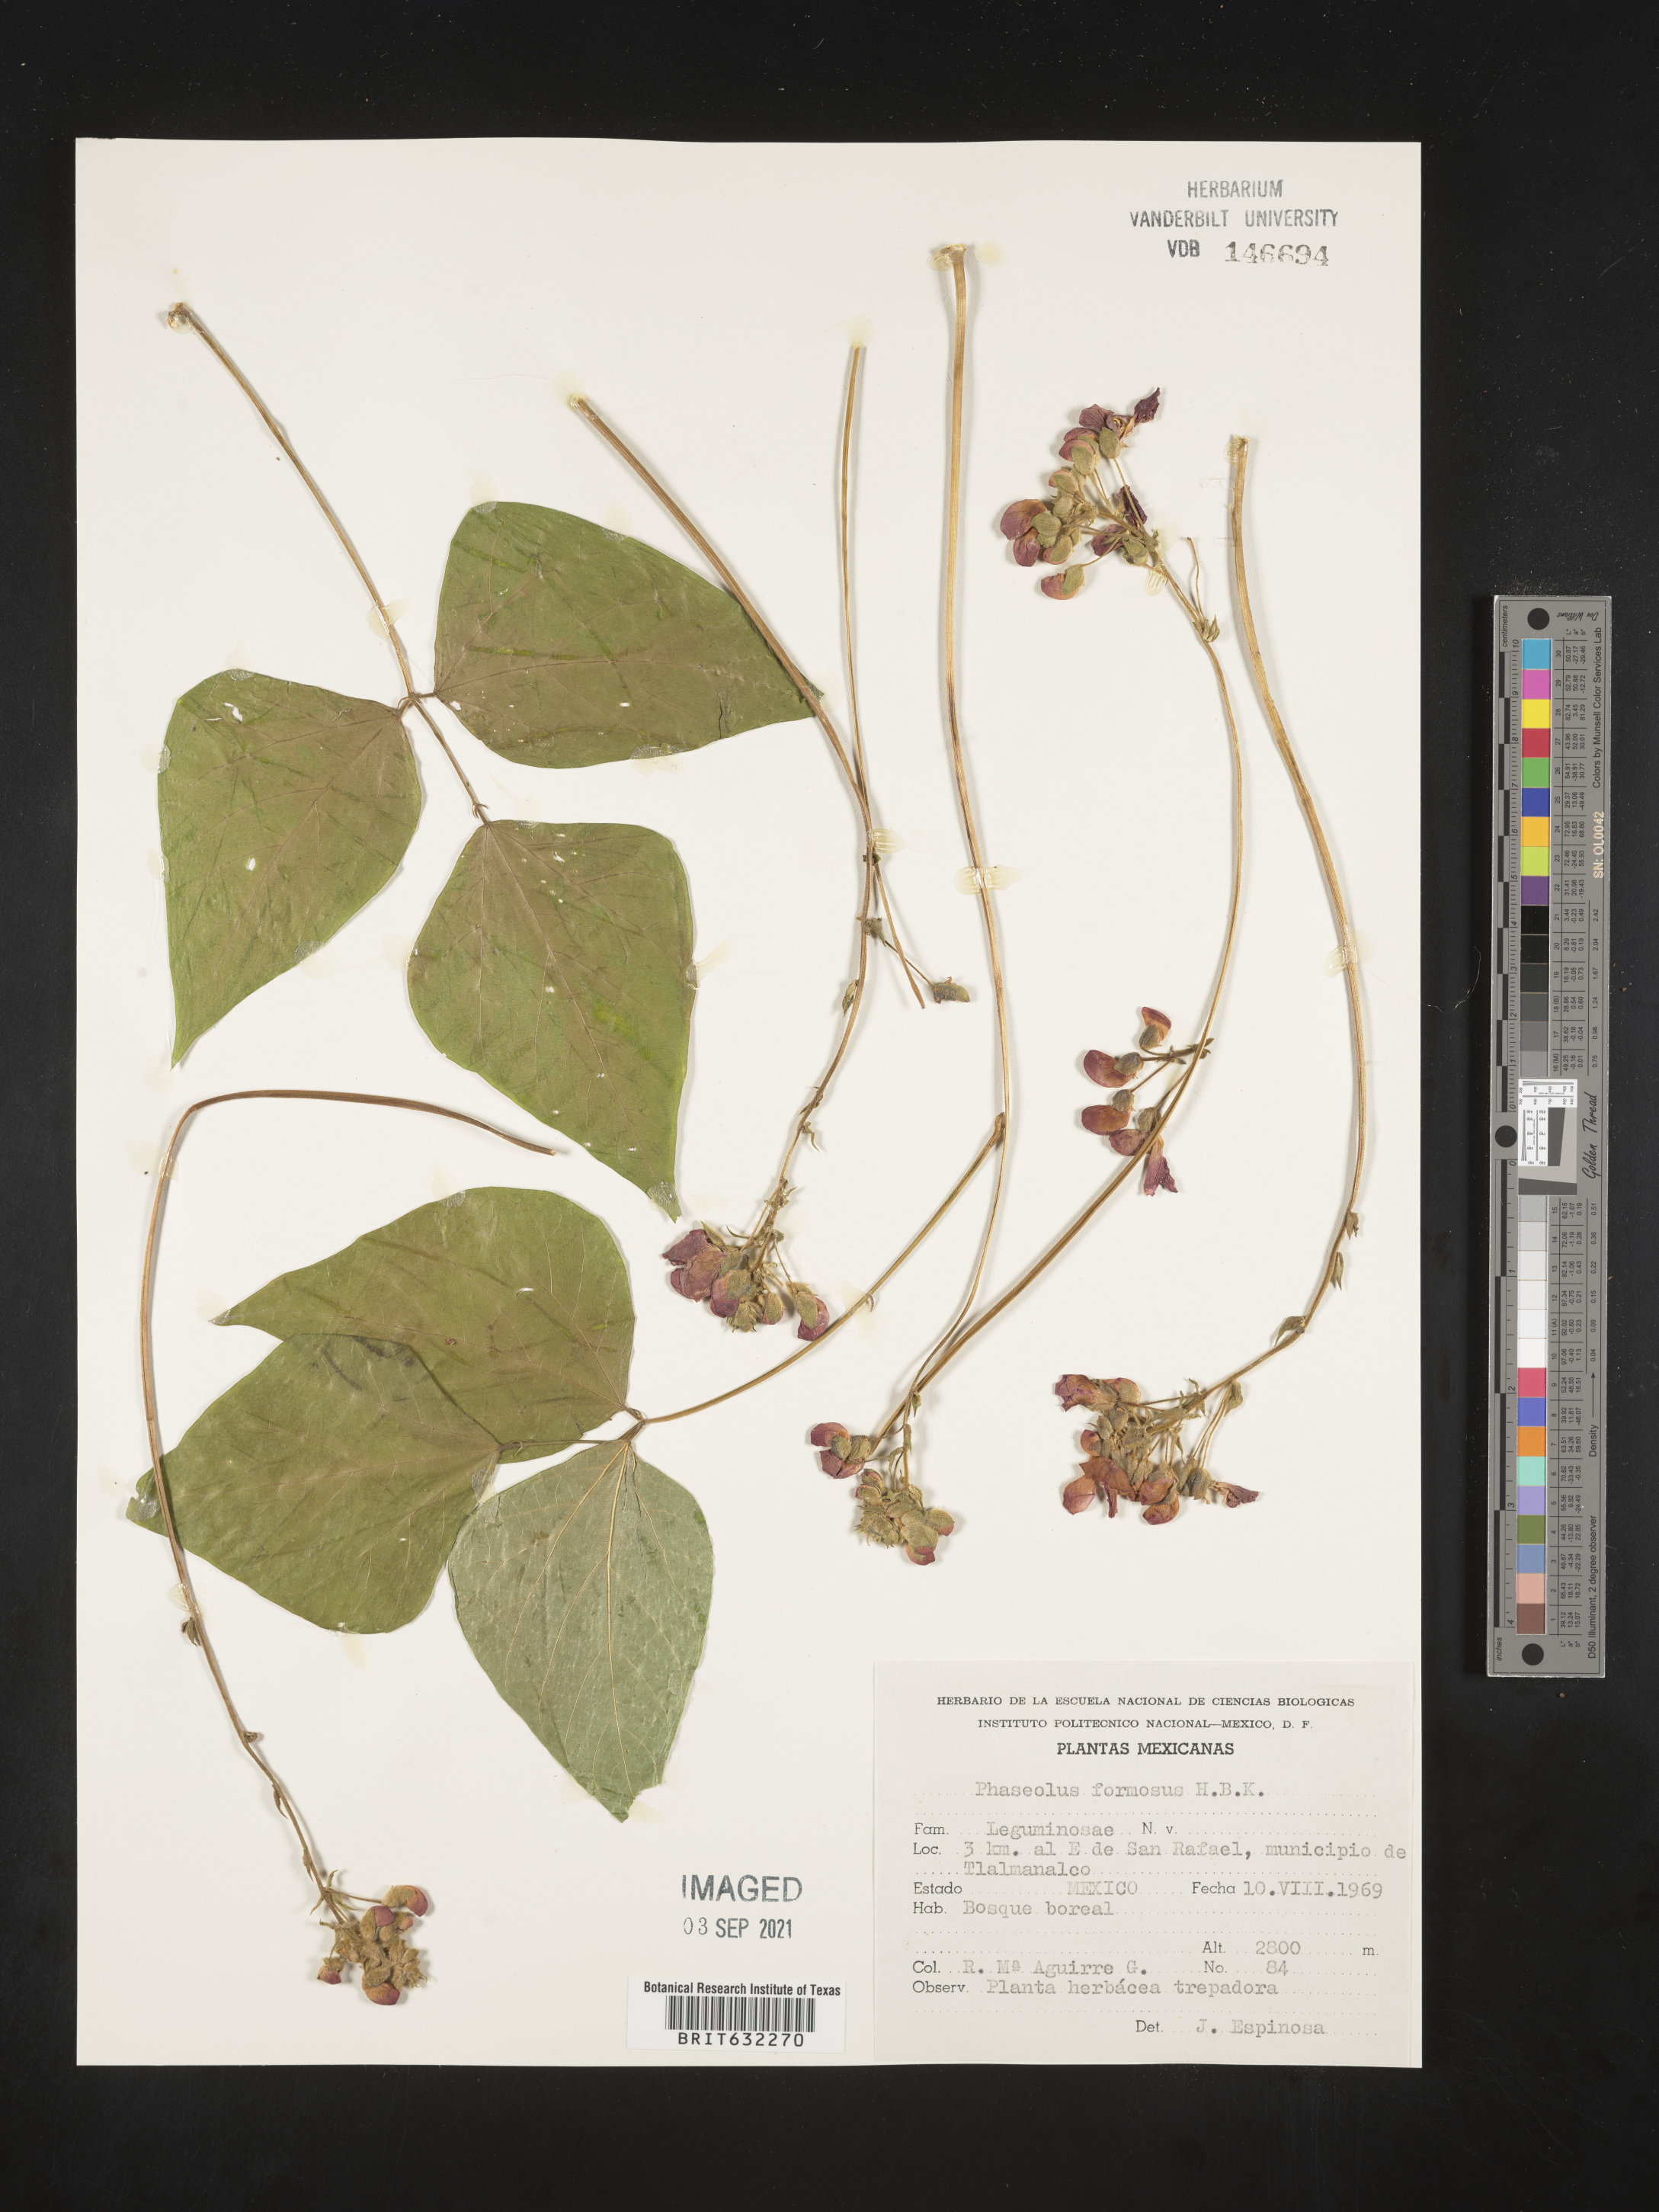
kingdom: Plantae
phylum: Tracheophyta
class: Magnoliopsida
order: Fabales
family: Fabaceae
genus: Phaseolus
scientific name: Phaseolus
